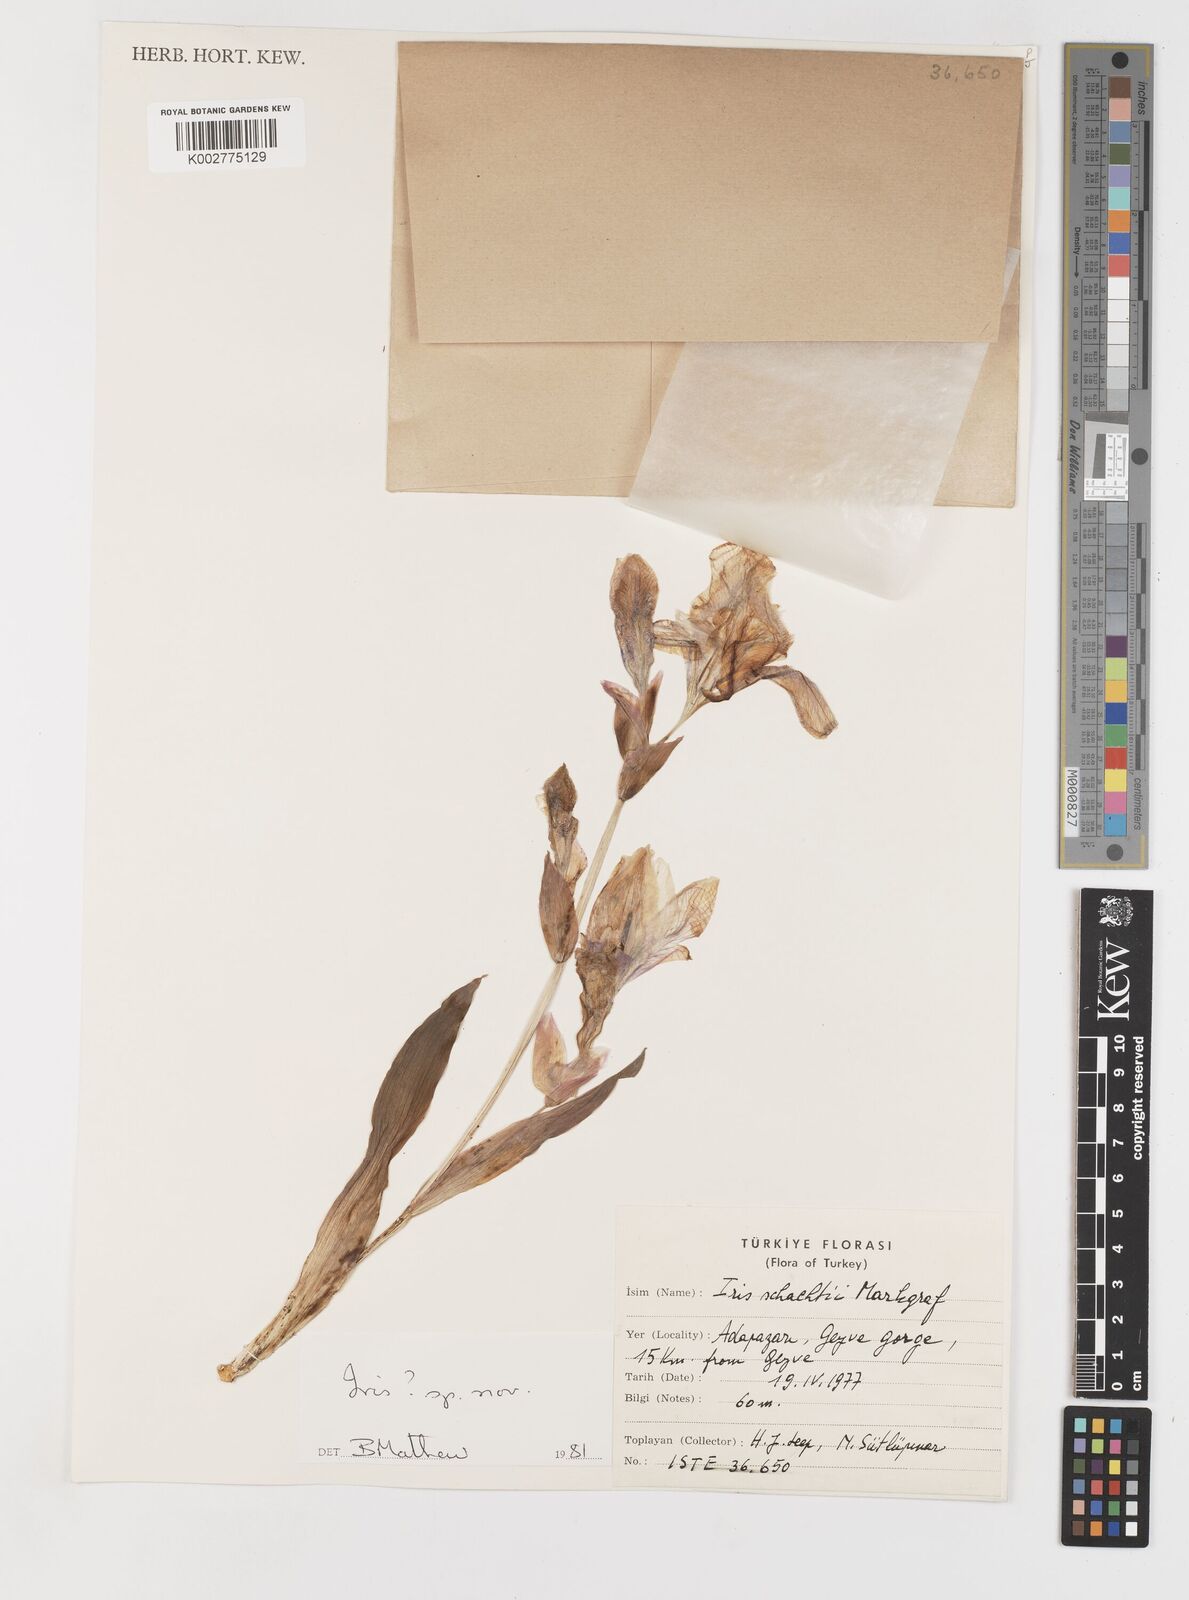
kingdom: Plantae
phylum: Tracheophyta
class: Liliopsida
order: Asparagales
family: Iridaceae
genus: Iris
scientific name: Iris purpureobractea
